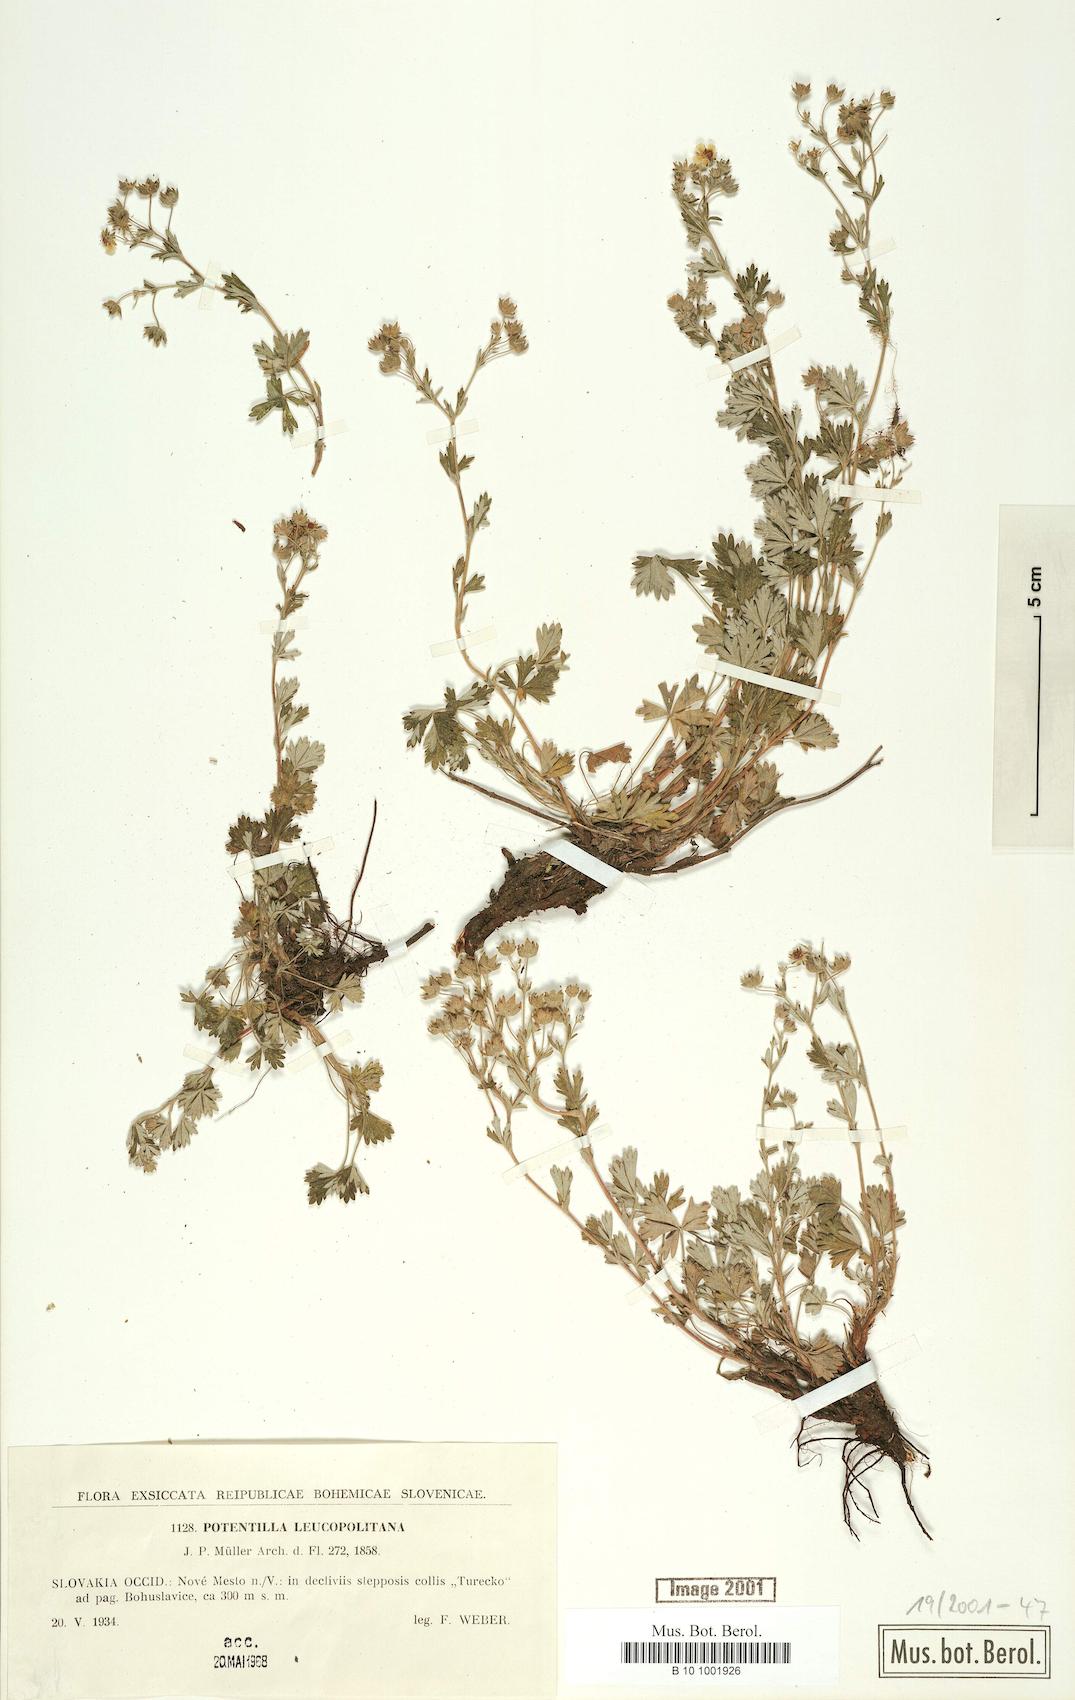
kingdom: Plantae
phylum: Tracheophyta
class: Magnoliopsida
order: Rosales
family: Rosaceae
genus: Potentilla
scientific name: Potentilla leucopolitana
